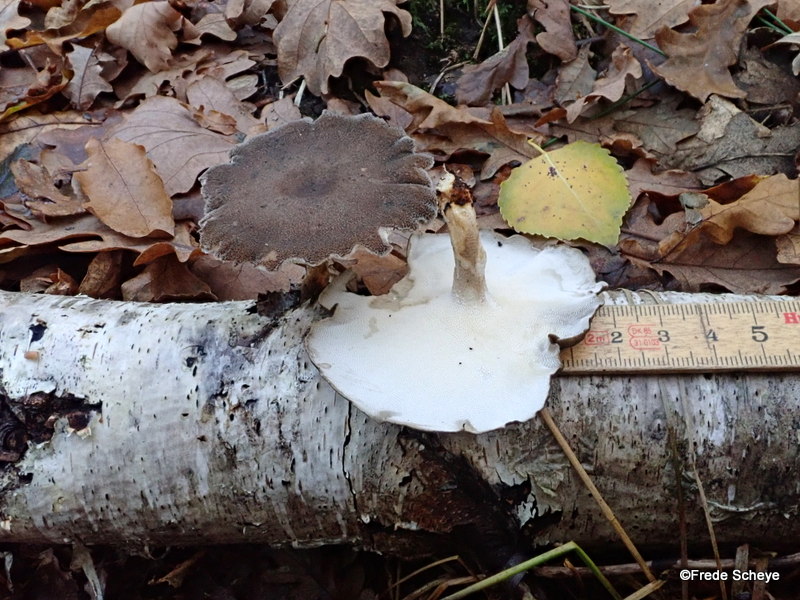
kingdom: Fungi
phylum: Basidiomycota
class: Agaricomycetes
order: Polyporales
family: Polyporaceae
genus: Lentinus
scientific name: Lentinus brumalis
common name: vinter-stilkporesvamp
